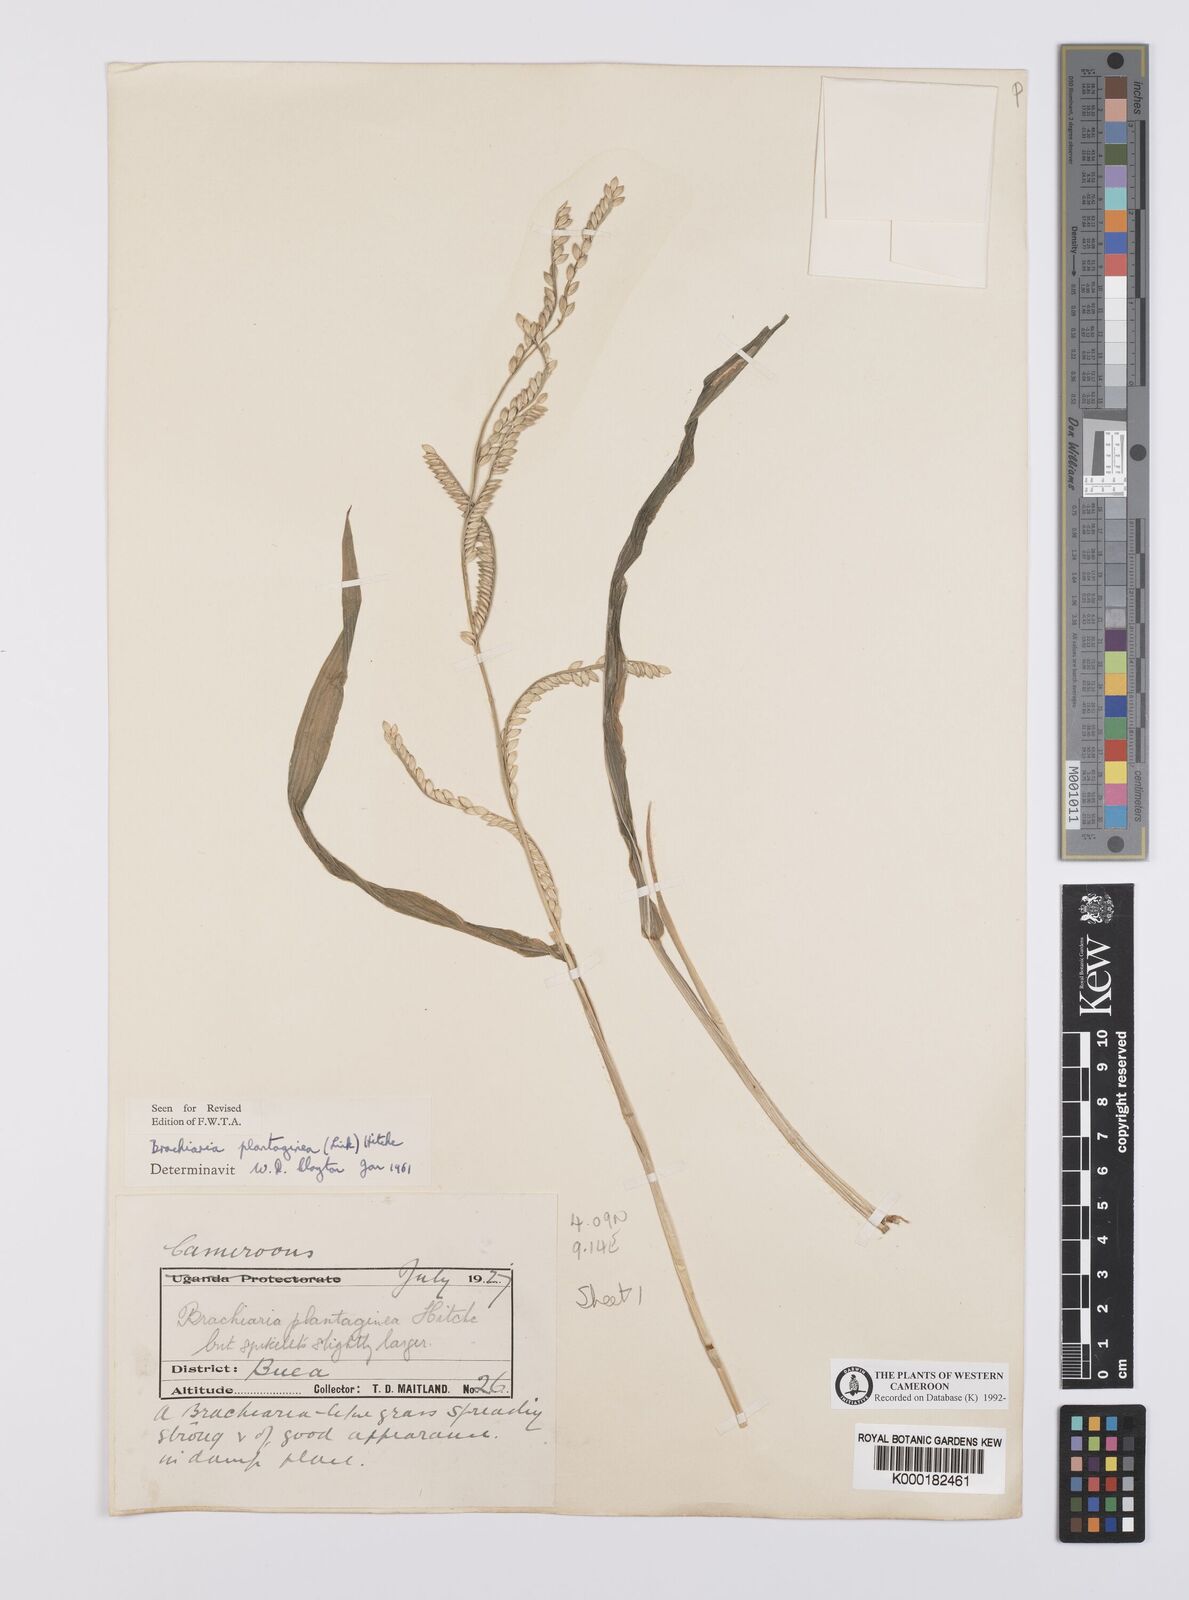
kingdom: Plantae
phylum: Tracheophyta
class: Liliopsida
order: Poales
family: Poaceae
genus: Urochloa
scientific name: Urochloa plantaginea
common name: Plantain signalgrass
